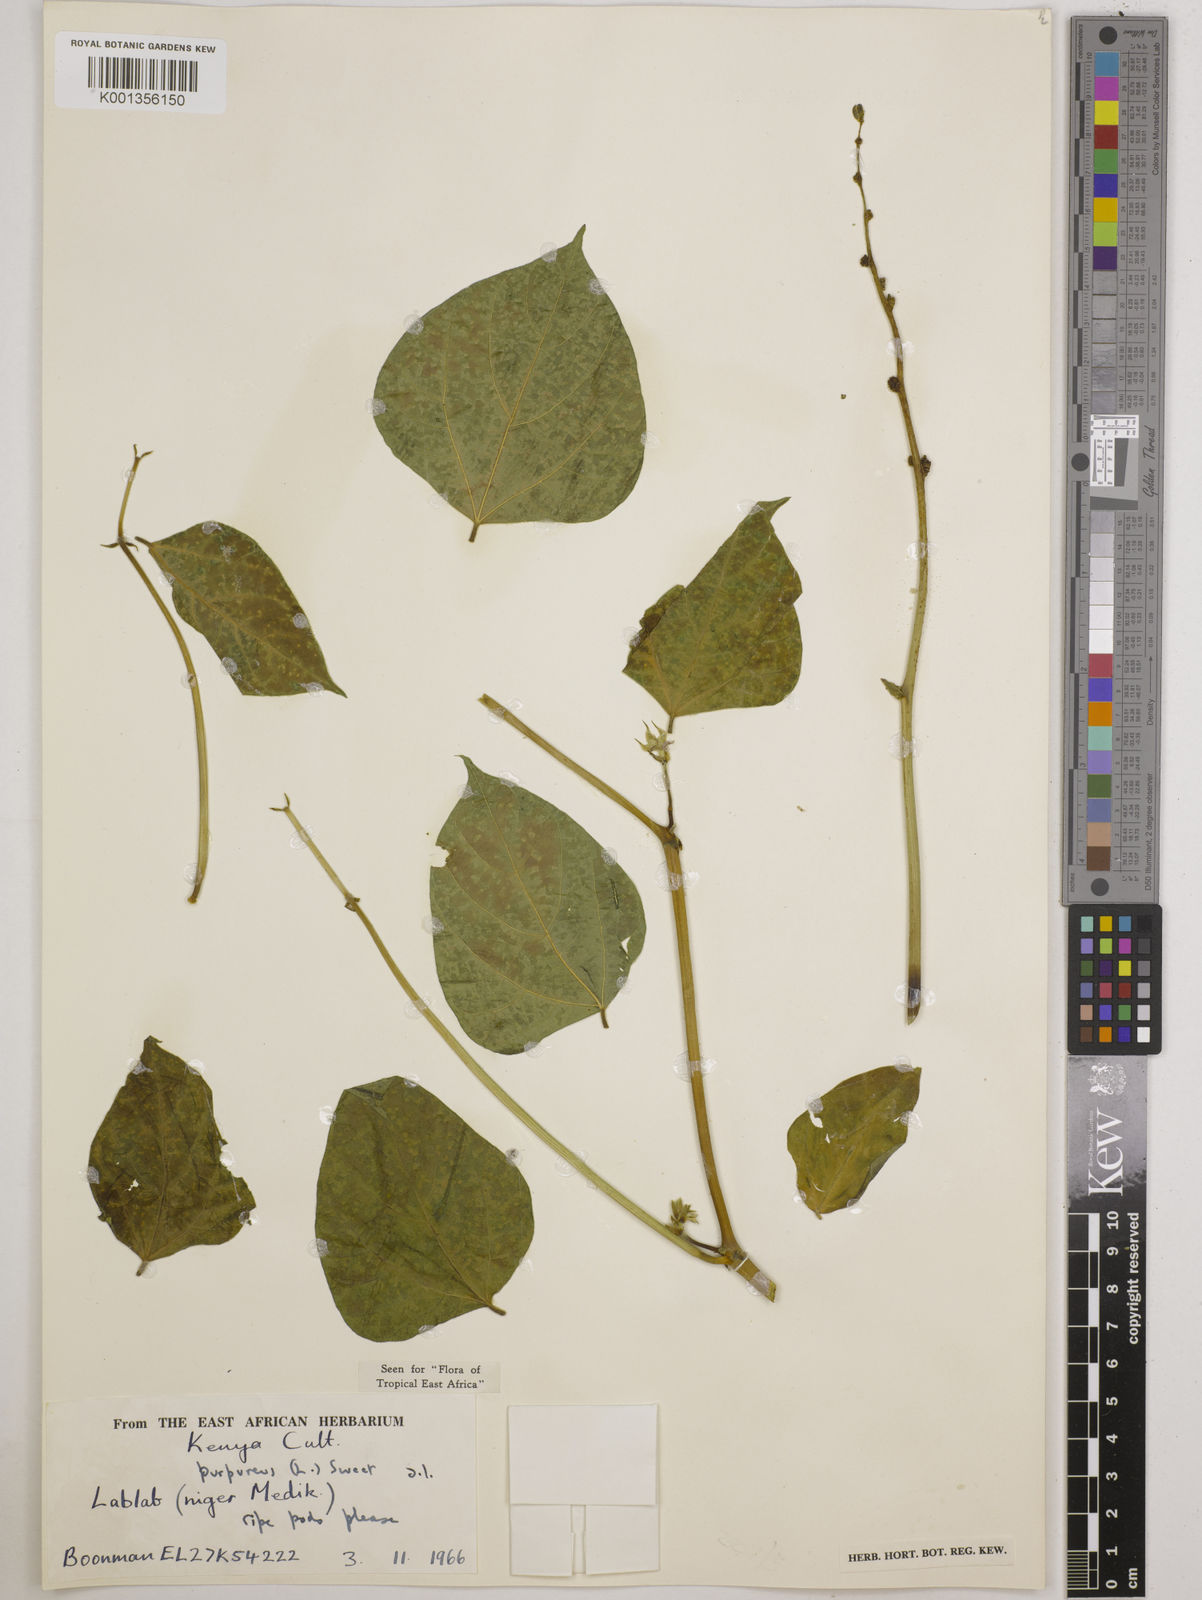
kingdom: Plantae
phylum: Tracheophyta
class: Magnoliopsida
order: Fabales
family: Fabaceae
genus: Lablab
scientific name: Lablab purpureus
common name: Lablab-bean
